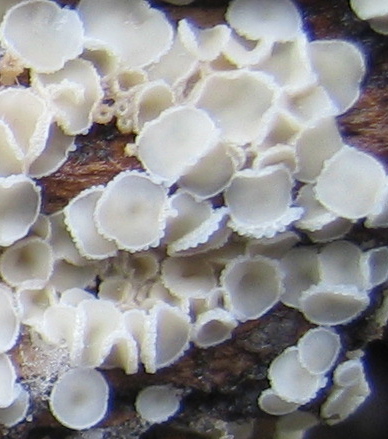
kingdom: Fungi
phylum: Ascomycota
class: Leotiomycetes
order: Helotiales
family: Hyaloscyphaceae
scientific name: Hyaloscyphaceae
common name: frynseskivefamilien
